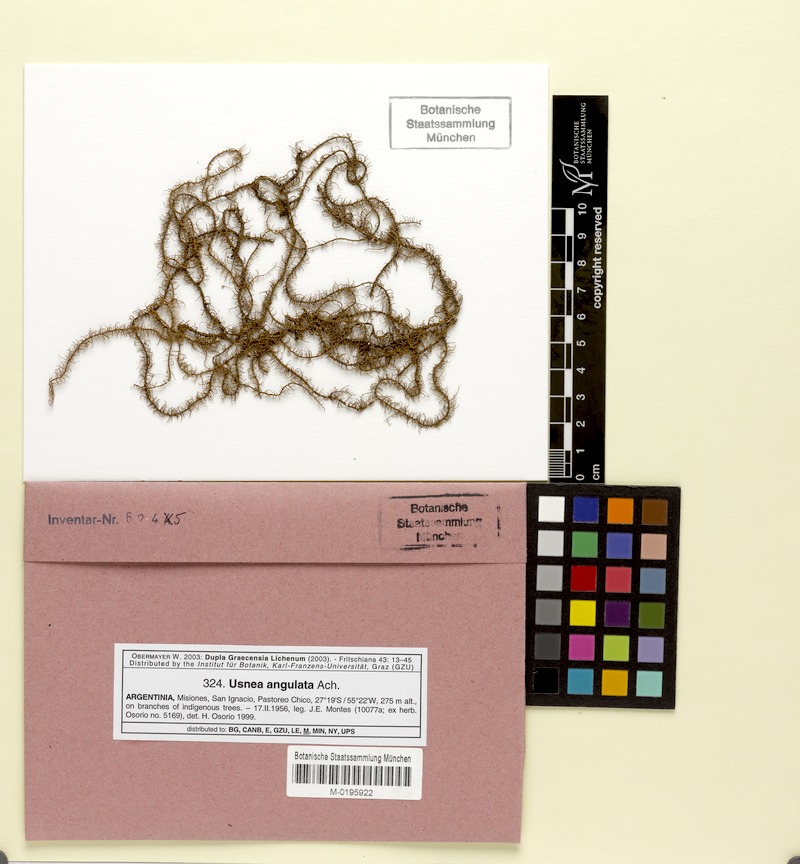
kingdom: Fungi
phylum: Ascomycota
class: Lecanoromycetes
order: Lecanorales
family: Parmeliaceae
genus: Usnea
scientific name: Usnea angulata
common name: Old-man’s beard lichen
